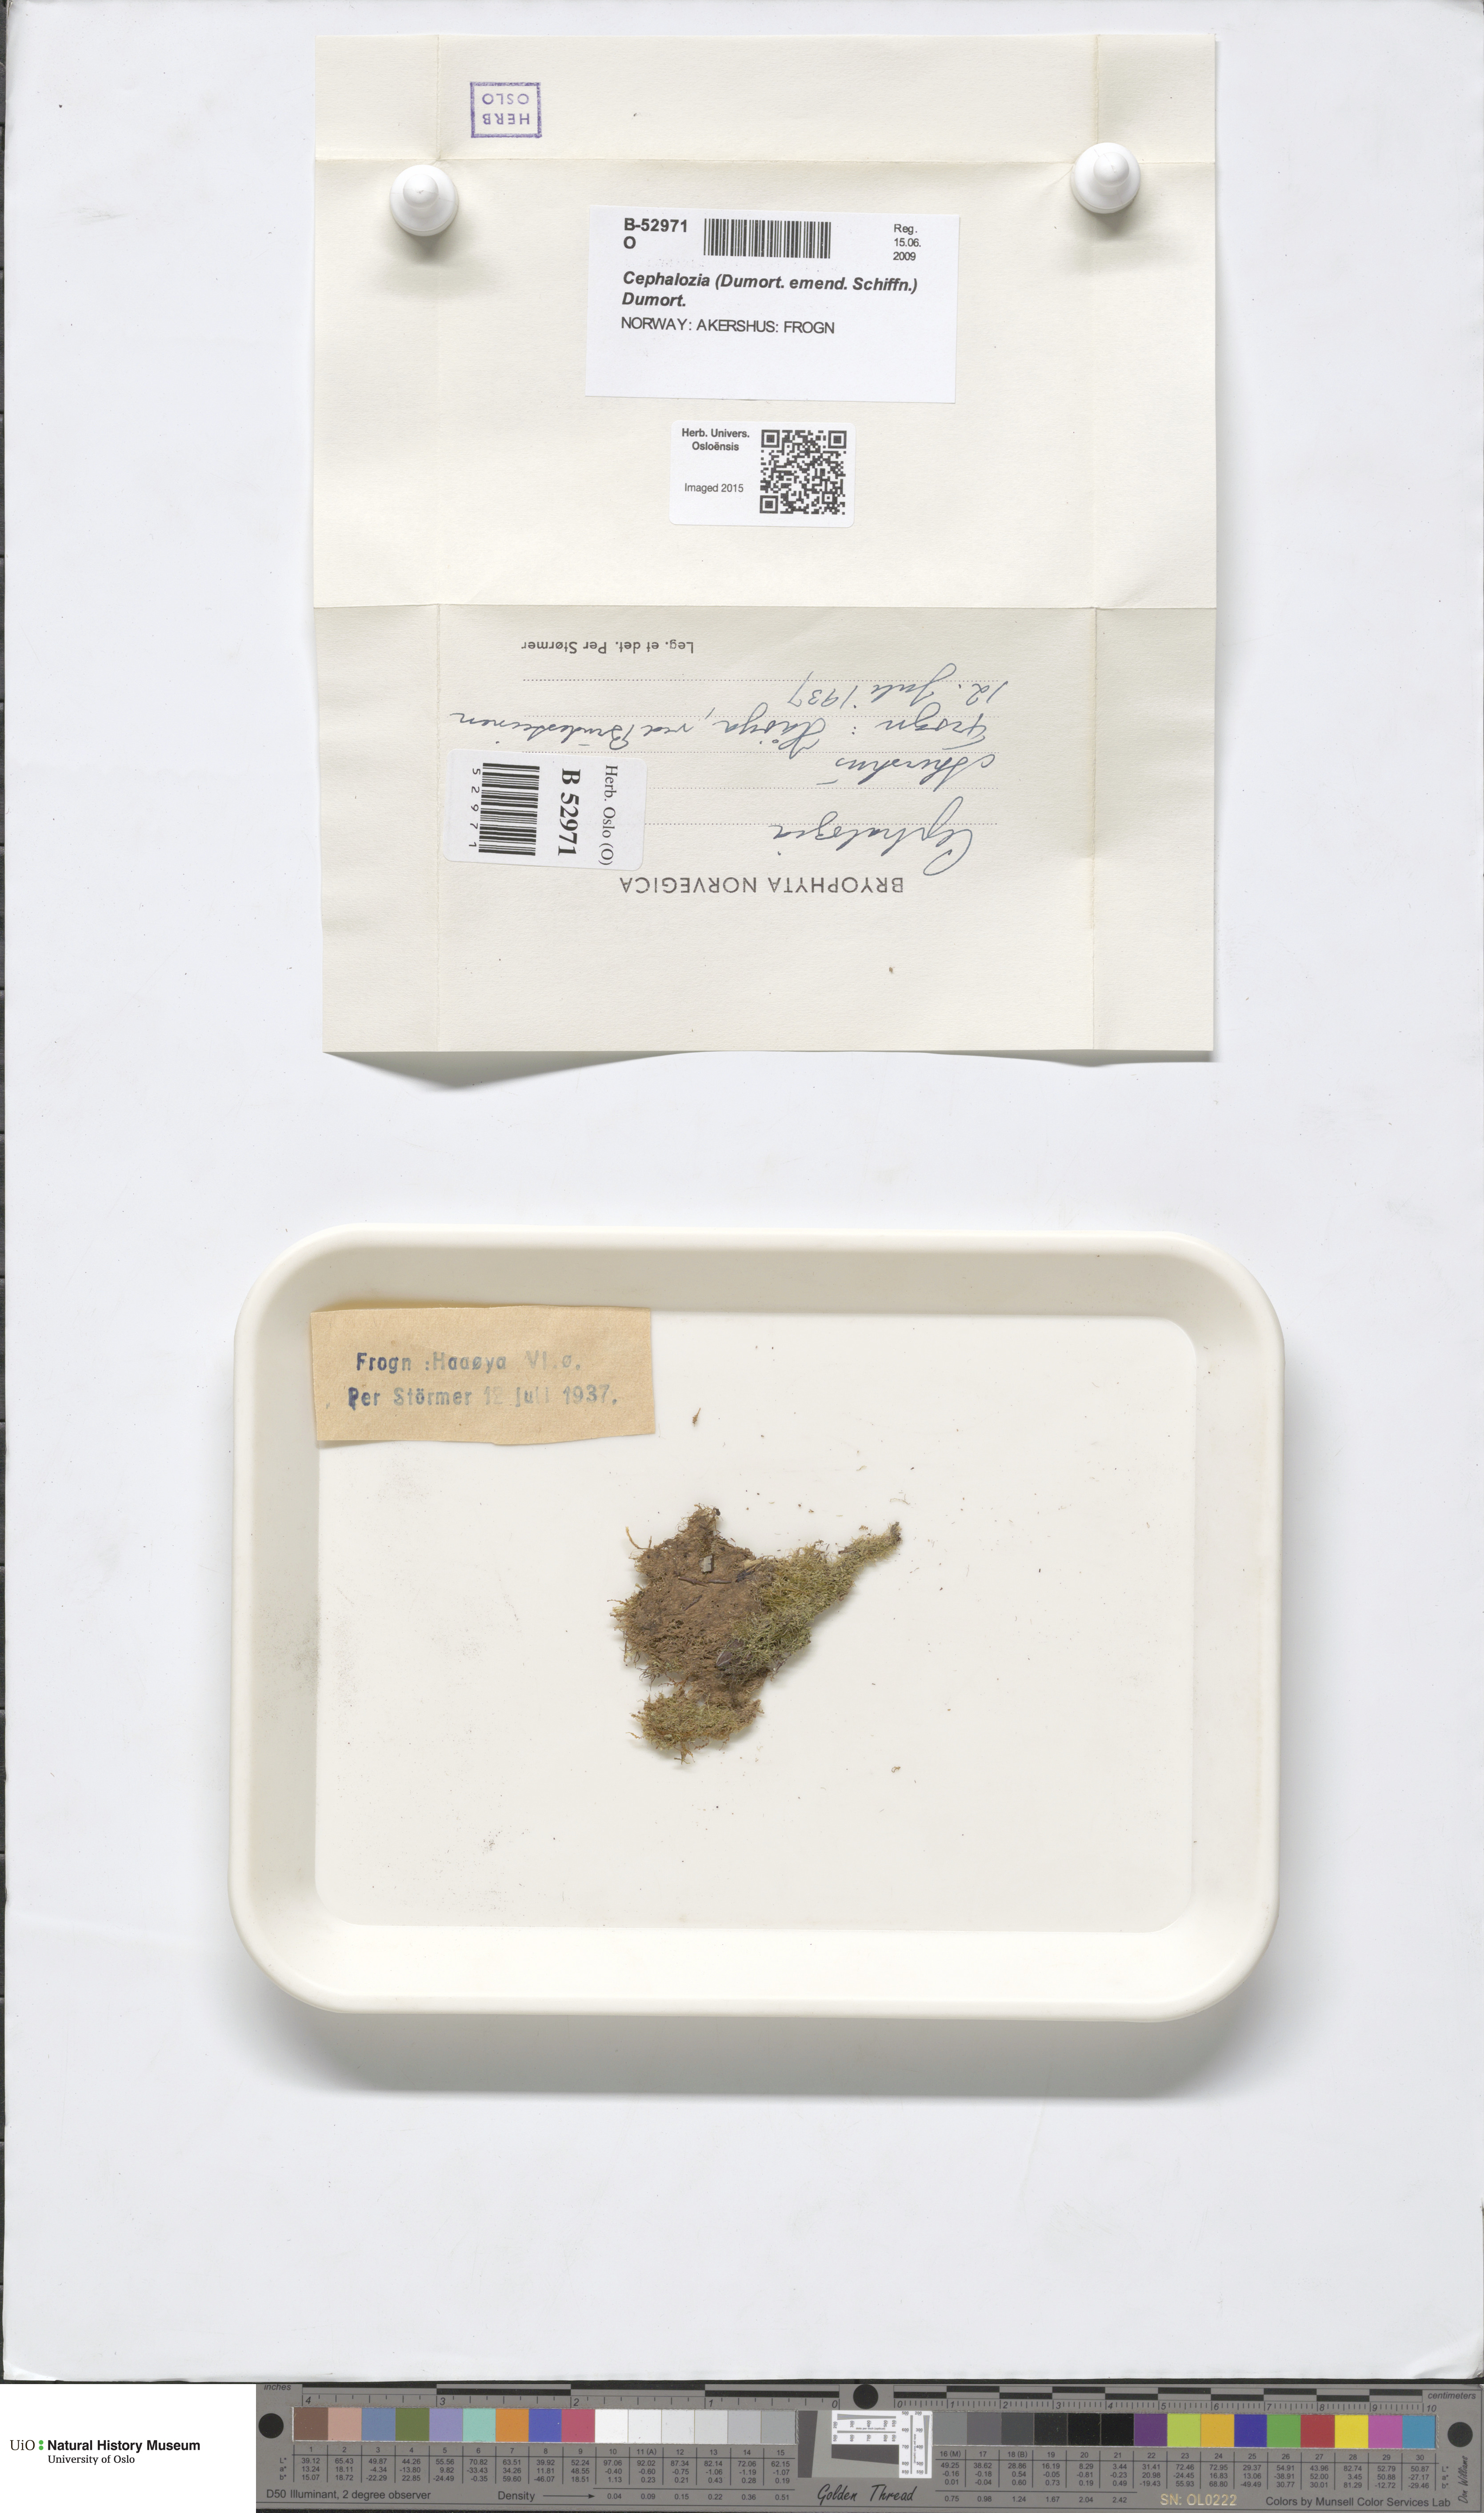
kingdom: Plantae
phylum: Marchantiophyta
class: Jungermanniopsida
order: Jungermanniales
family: Cephaloziaceae
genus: Cephalozia
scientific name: Cephalozia
